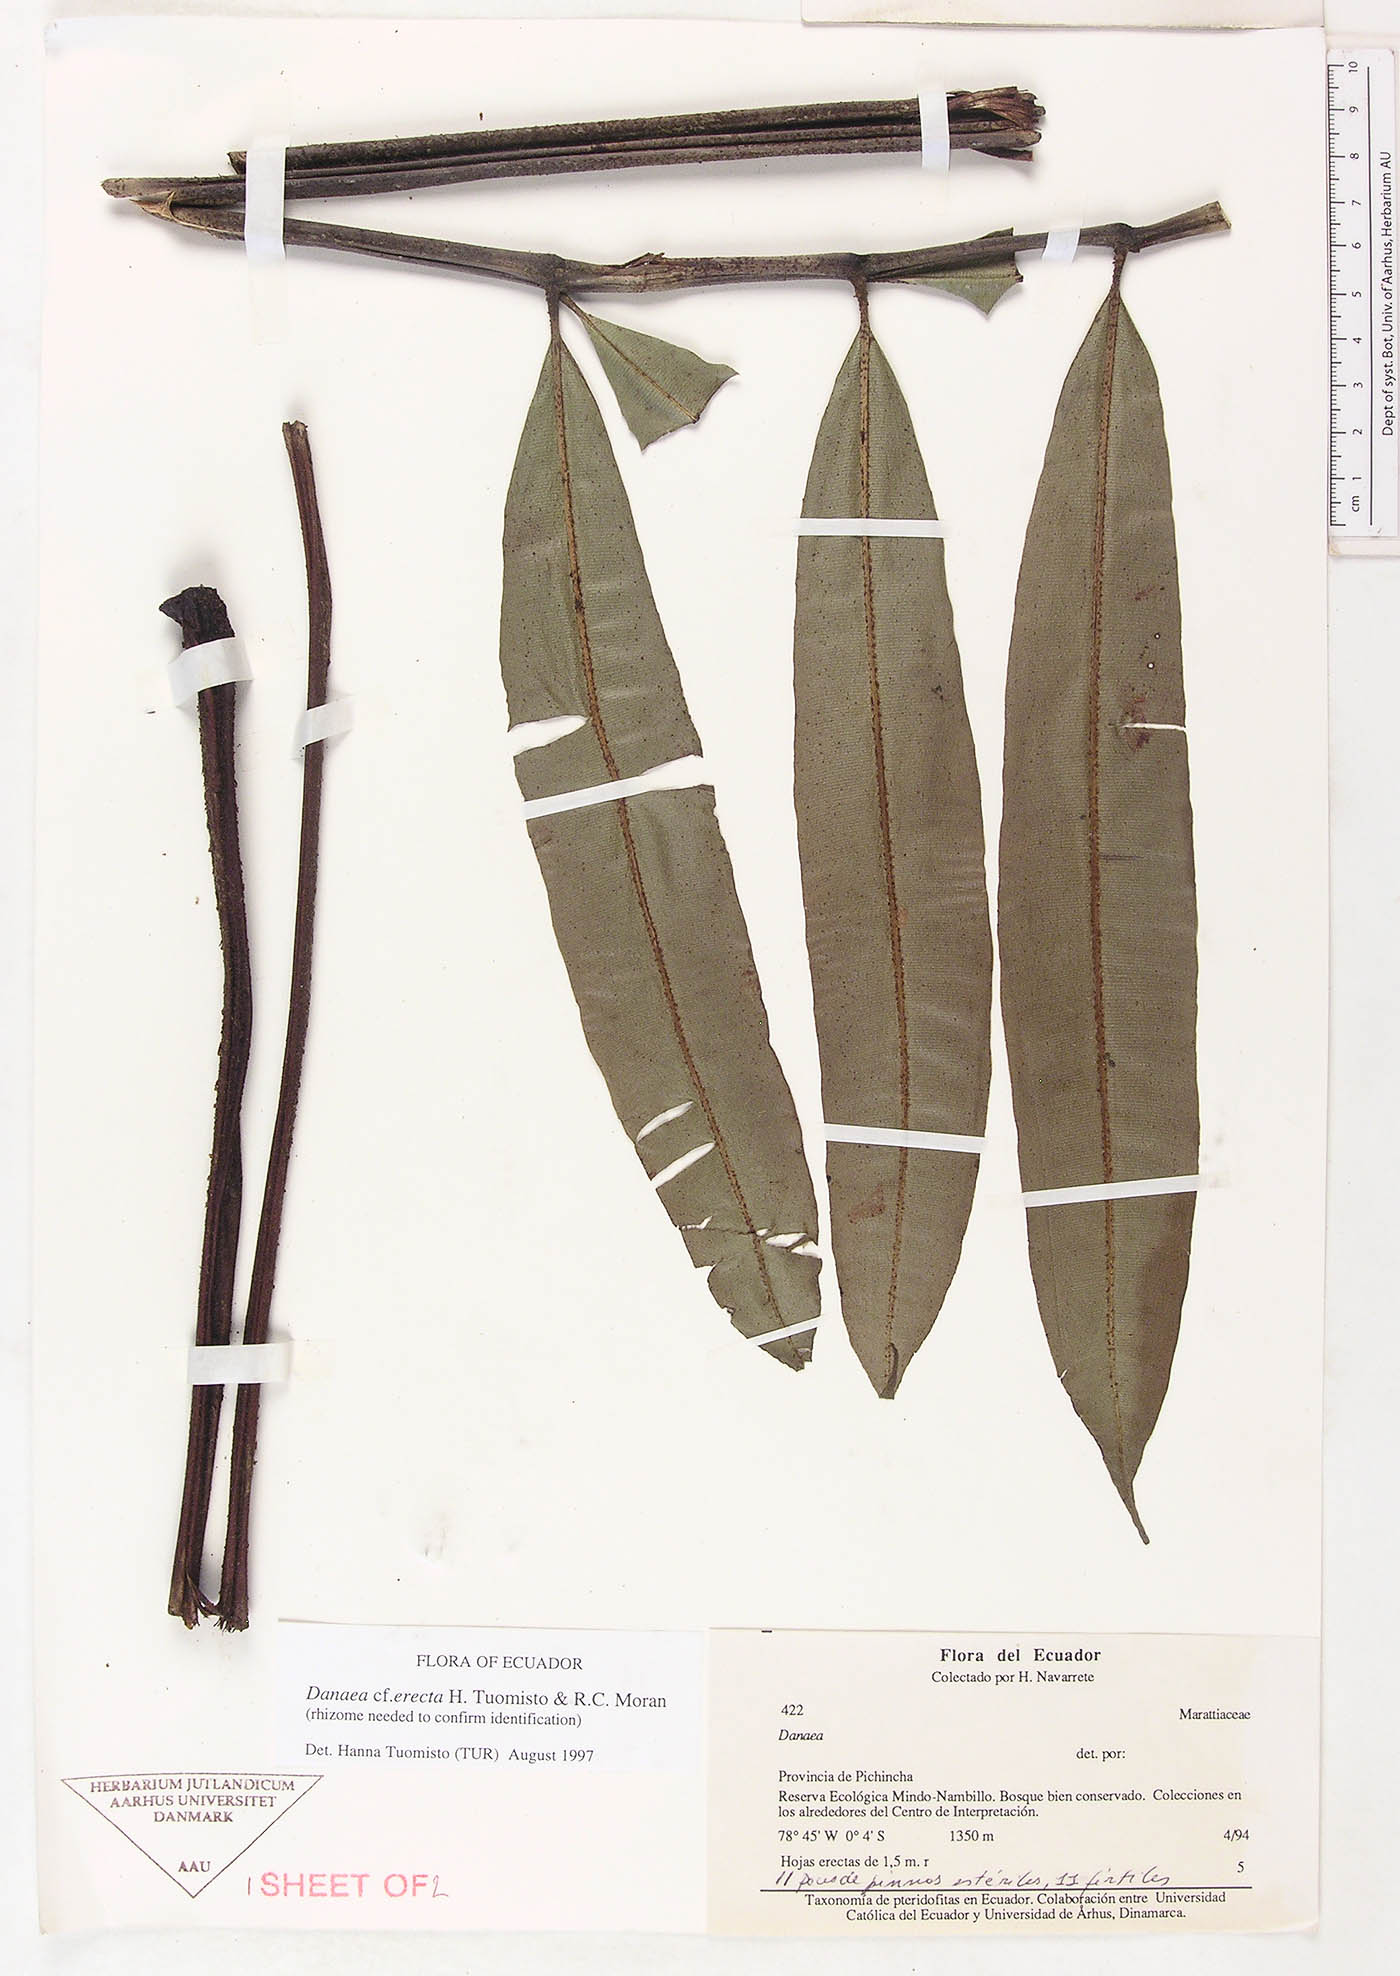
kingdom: Plantae
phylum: Tracheophyta
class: Polypodiopsida
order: Marattiales
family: Marattiaceae
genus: Danaea
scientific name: Danaea erecta
